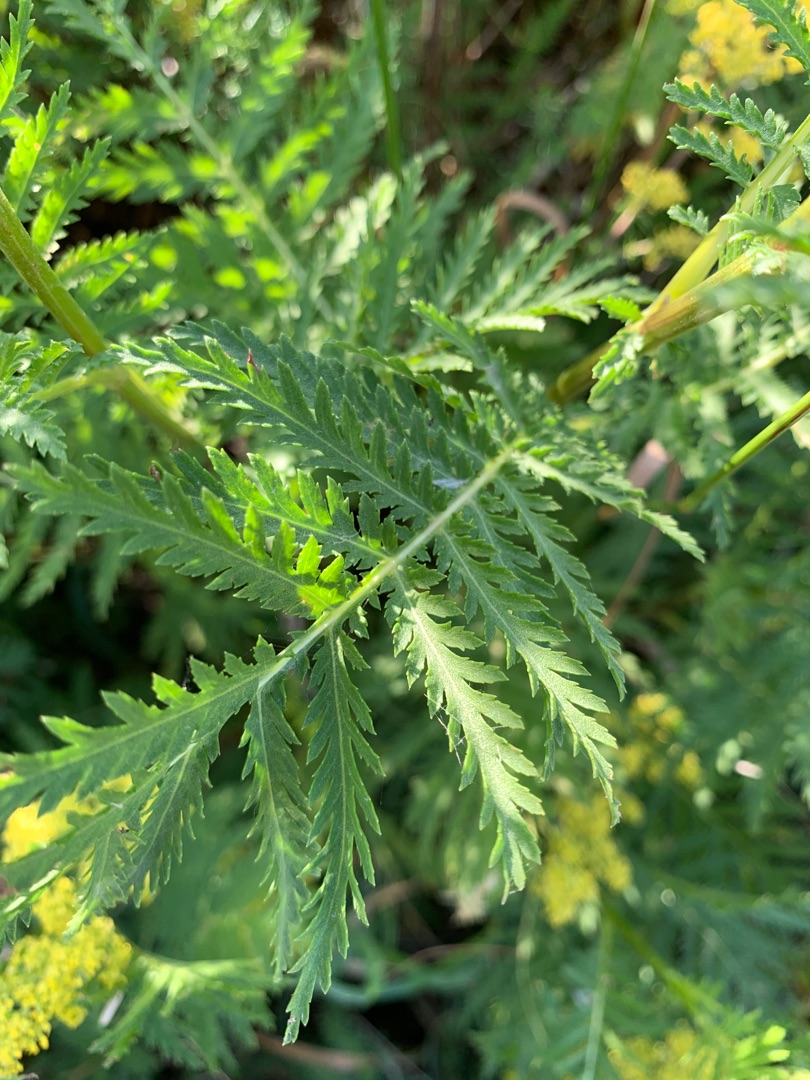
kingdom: Plantae
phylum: Tracheophyta
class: Magnoliopsida
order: Gentianales
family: Rubiaceae
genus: Galium
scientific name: Galium verum
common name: Gul snerre
